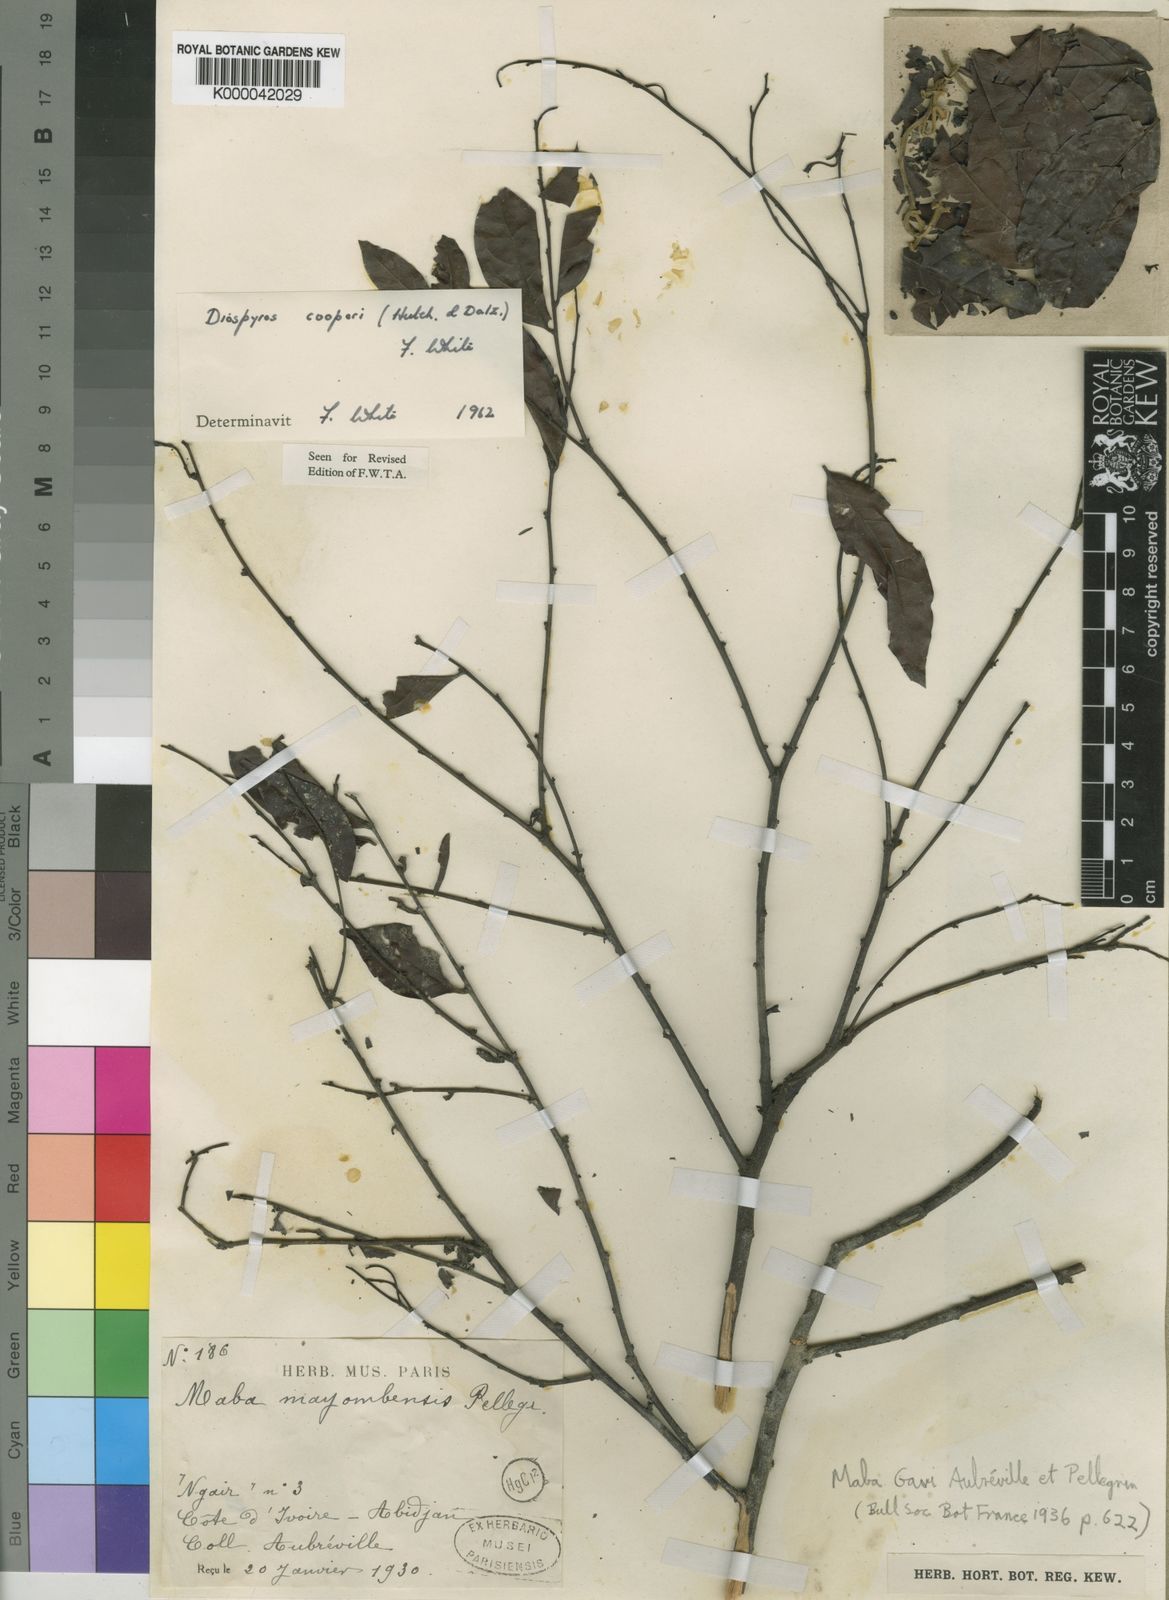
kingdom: Plantae
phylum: Tracheophyta
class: Magnoliopsida
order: Ericales
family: Ebenaceae
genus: Diospyros
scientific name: Diospyros cooperi
